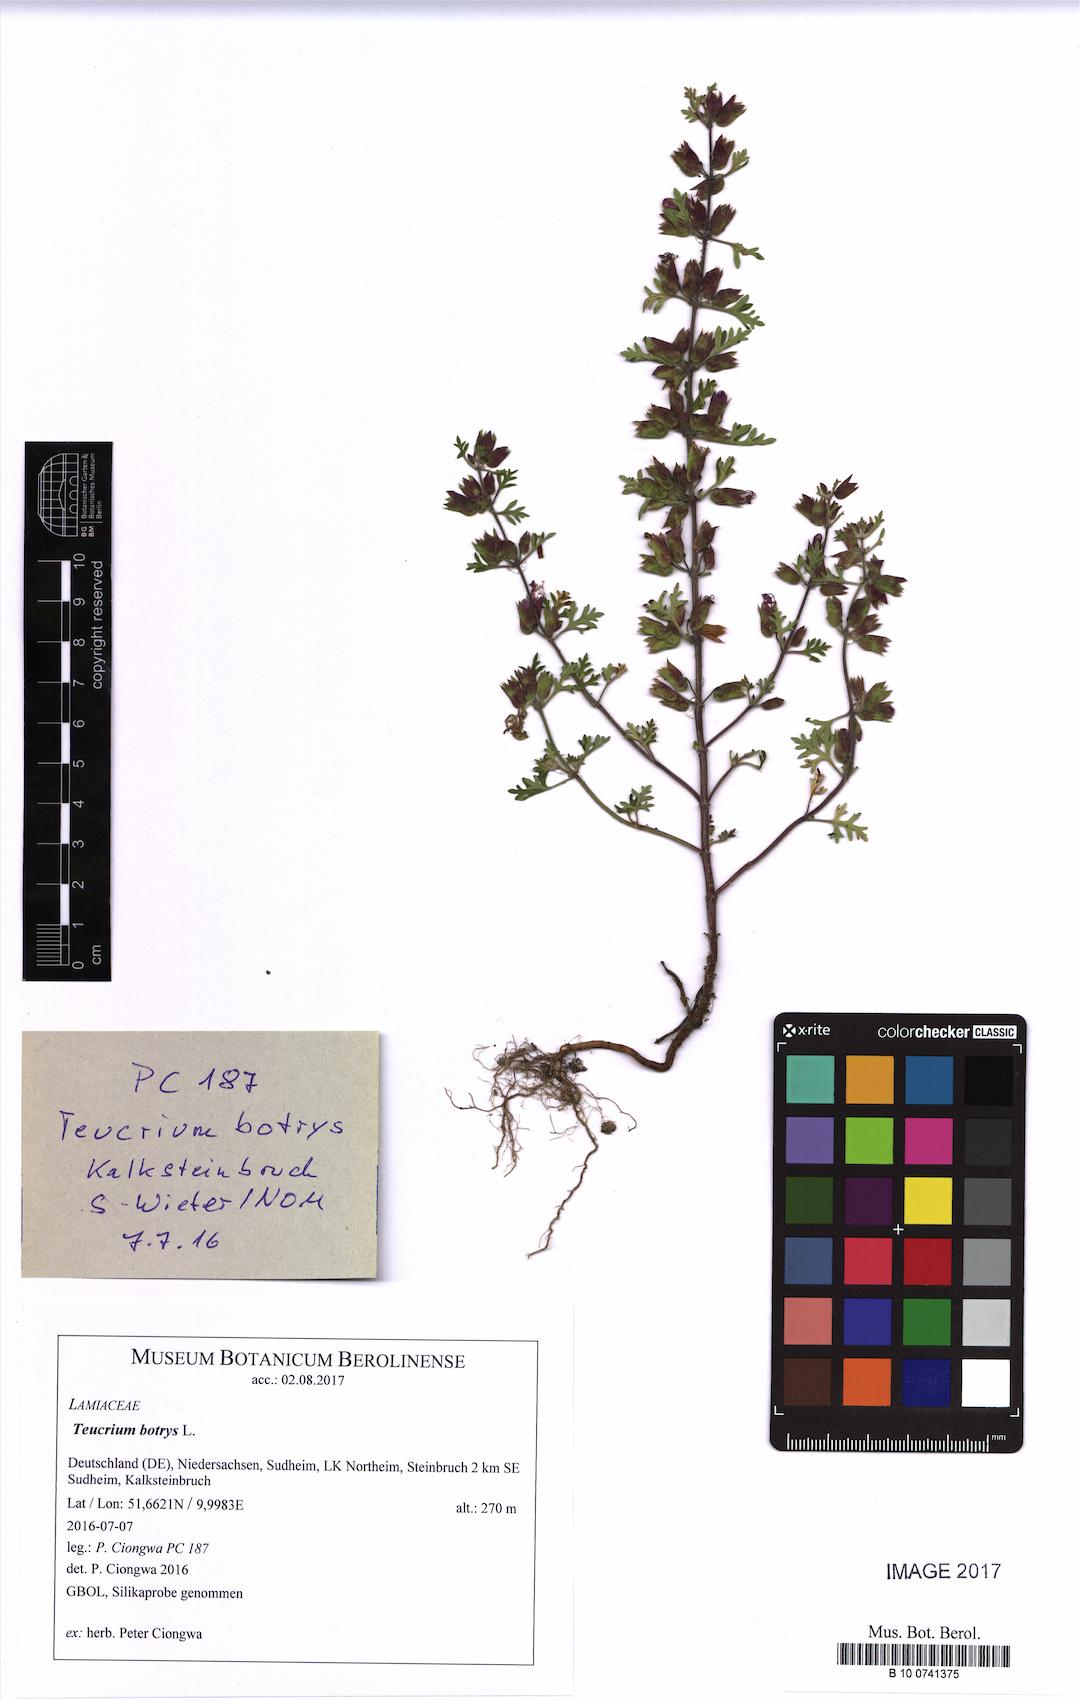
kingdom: Plantae
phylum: Tracheophyta
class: Magnoliopsida
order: Lamiales
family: Lamiaceae
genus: Teucrium
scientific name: Teucrium botrys
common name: Cut-leaved germander
